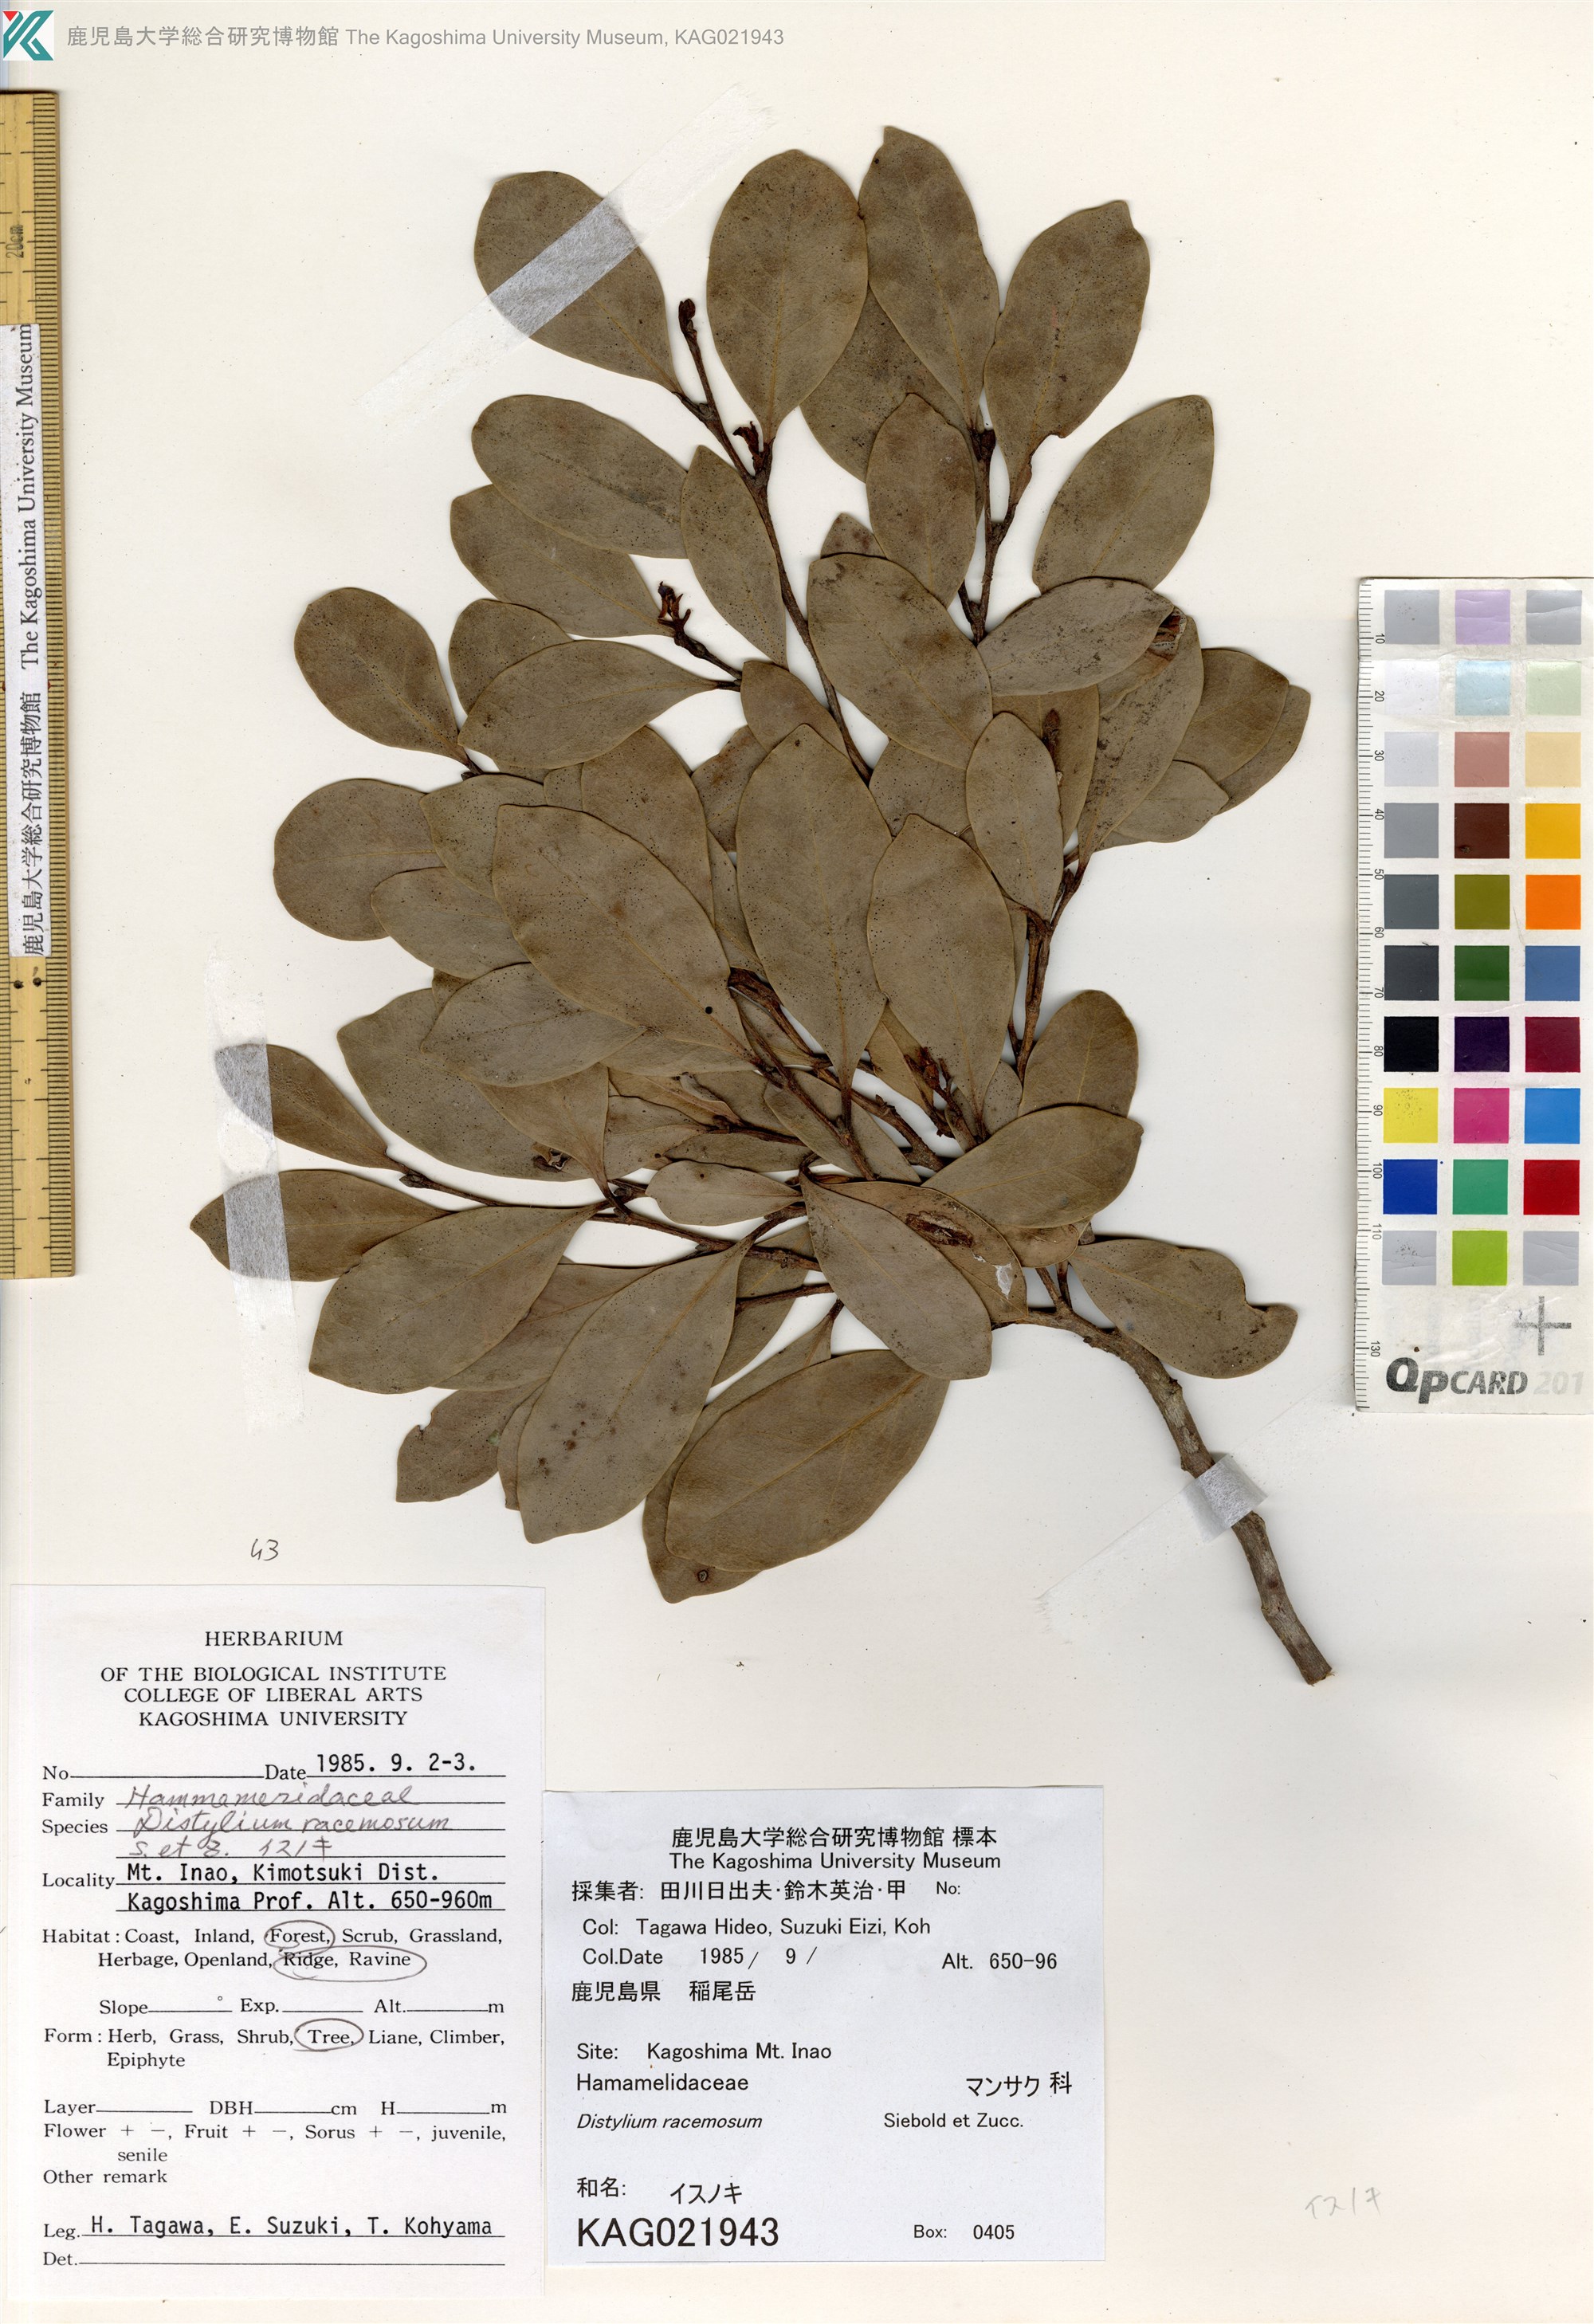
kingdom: Plantae
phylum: Tracheophyta
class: Magnoliopsida
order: Saxifragales
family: Hamamelidaceae
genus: Distylium
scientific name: Distylium racemosum
